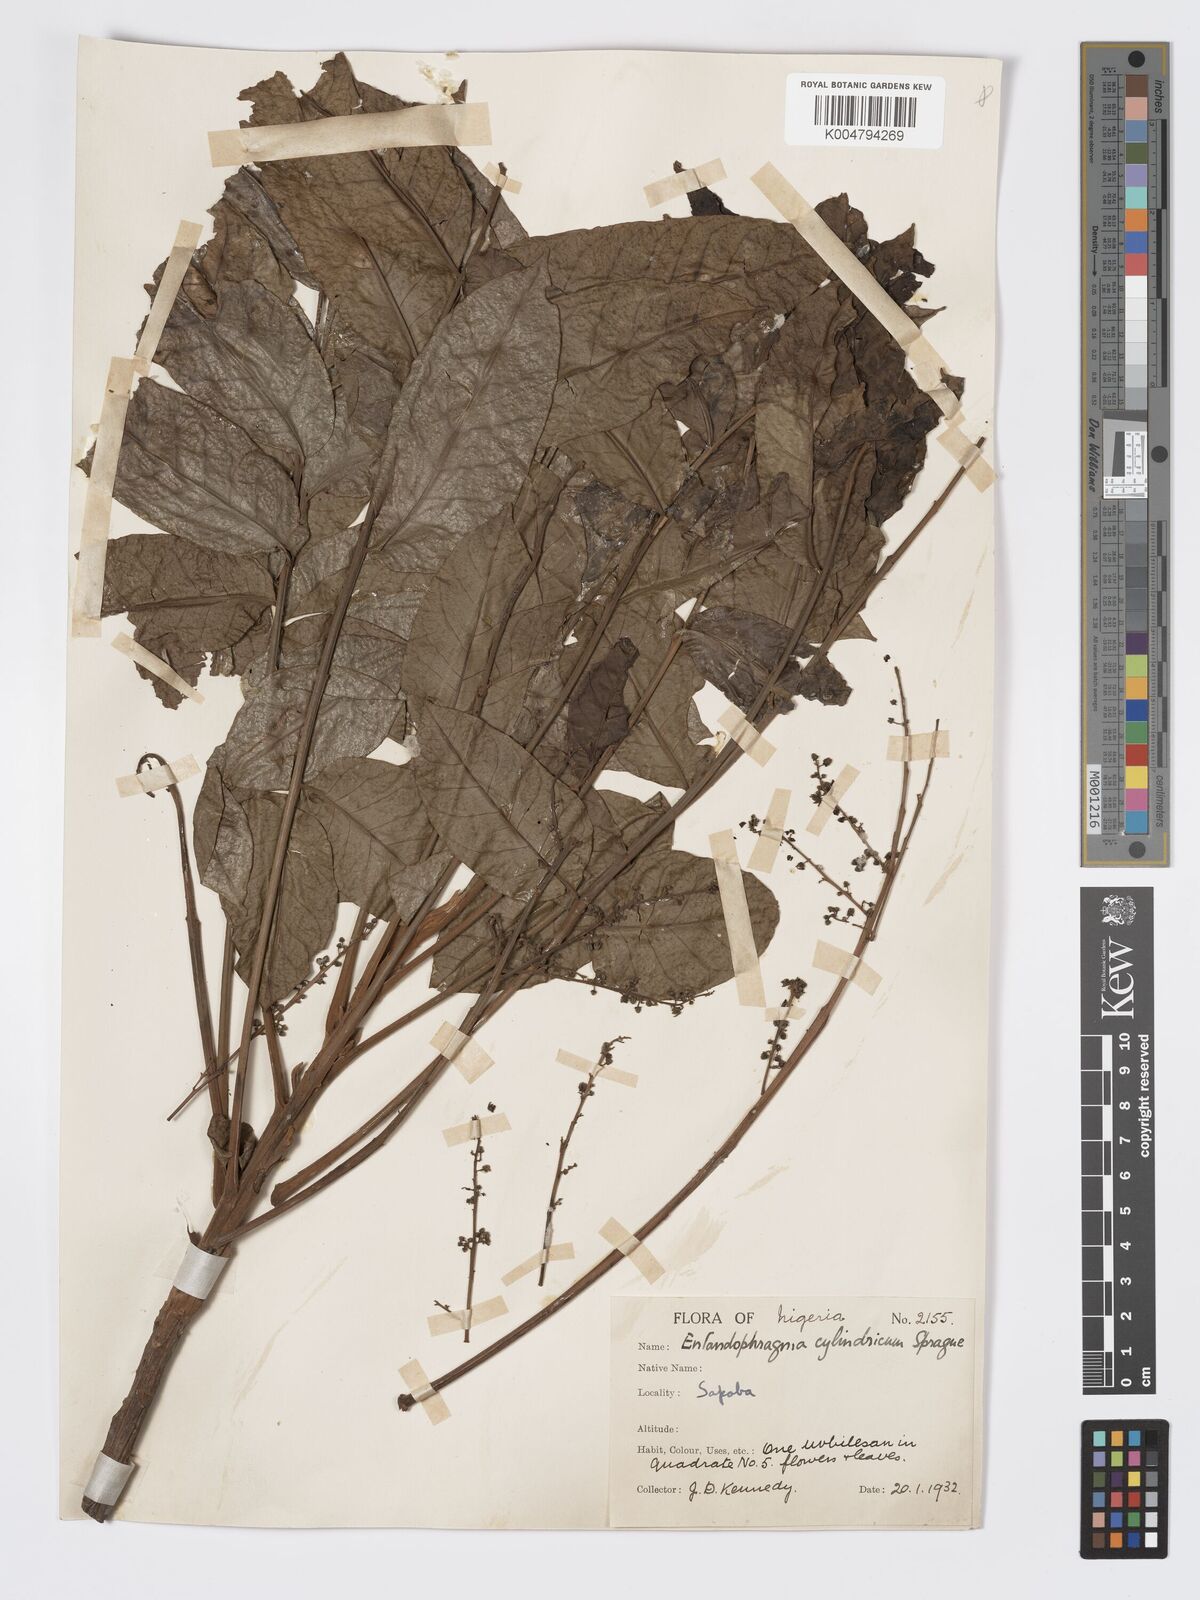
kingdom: Plantae
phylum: Tracheophyta
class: Magnoliopsida
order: Sapindales
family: Meliaceae
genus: Entandrophragma
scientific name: Entandrophragma cylindricum
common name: Sapele
